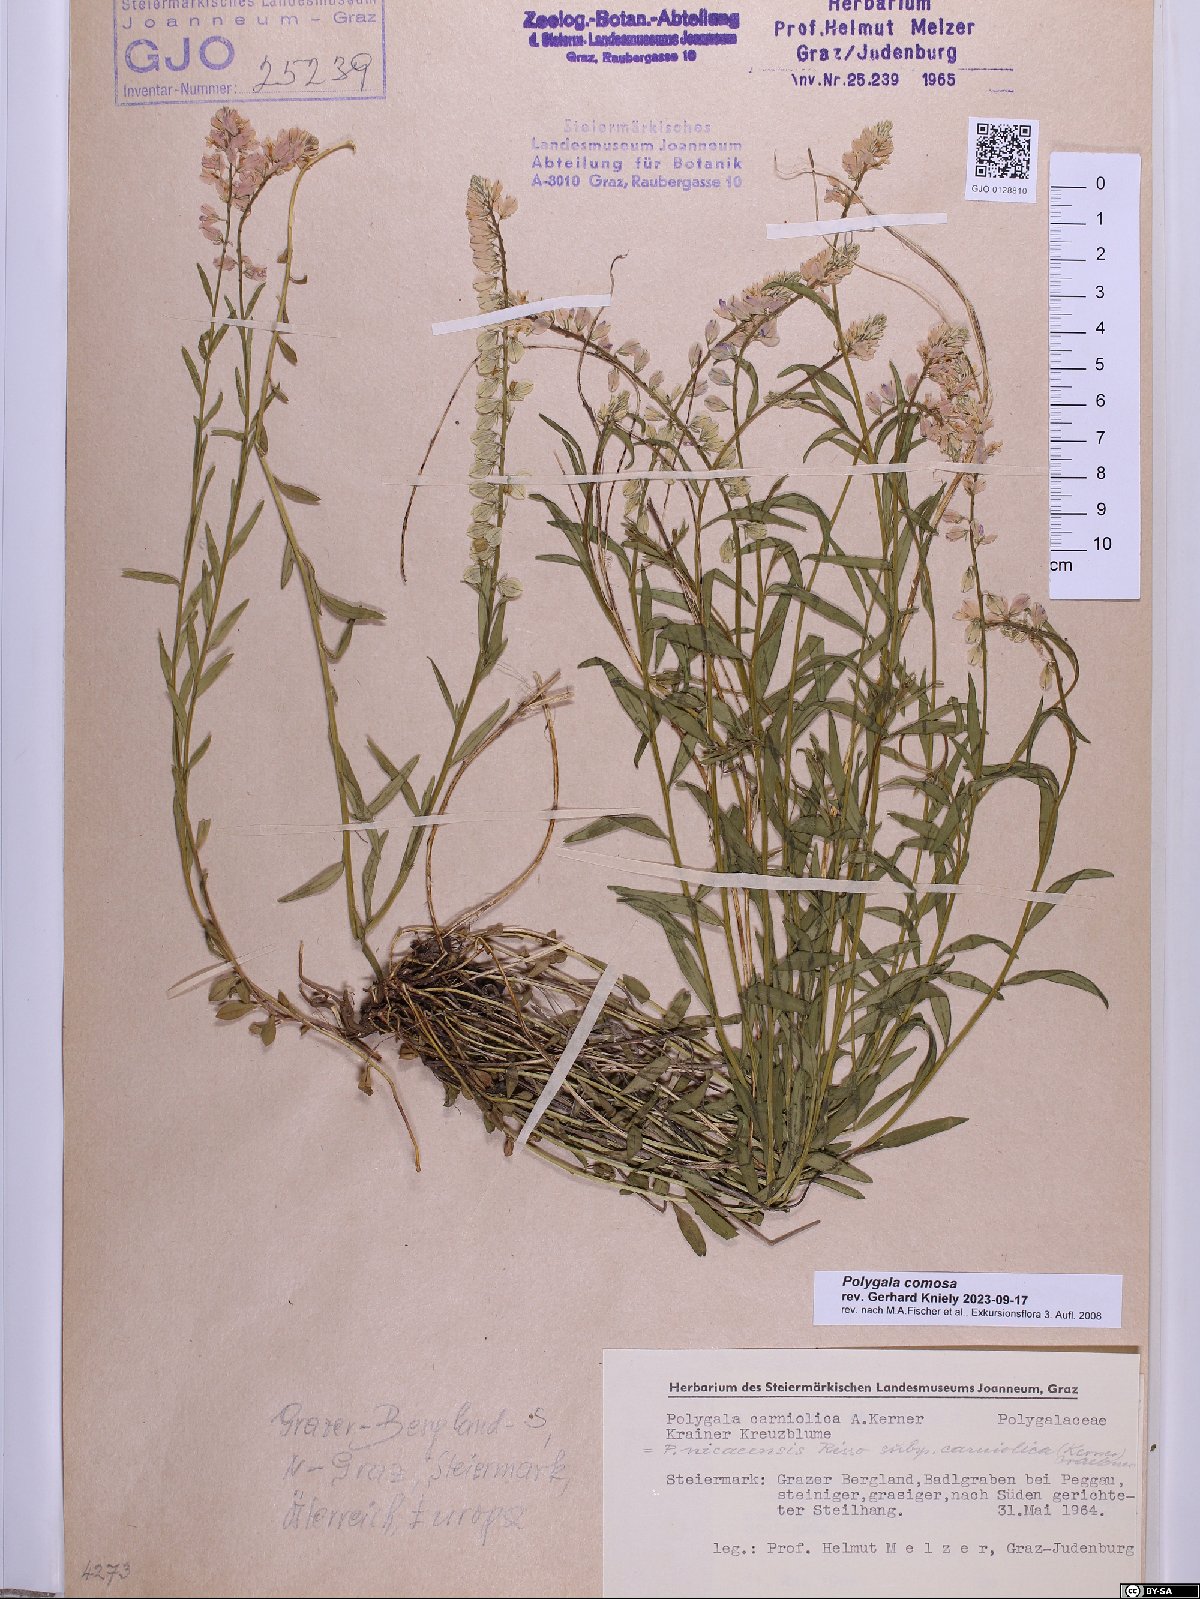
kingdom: Plantae
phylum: Tracheophyta
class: Magnoliopsida
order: Fabales
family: Polygalaceae
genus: Polygala
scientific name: Polygala comosa
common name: Tufted milkwort
